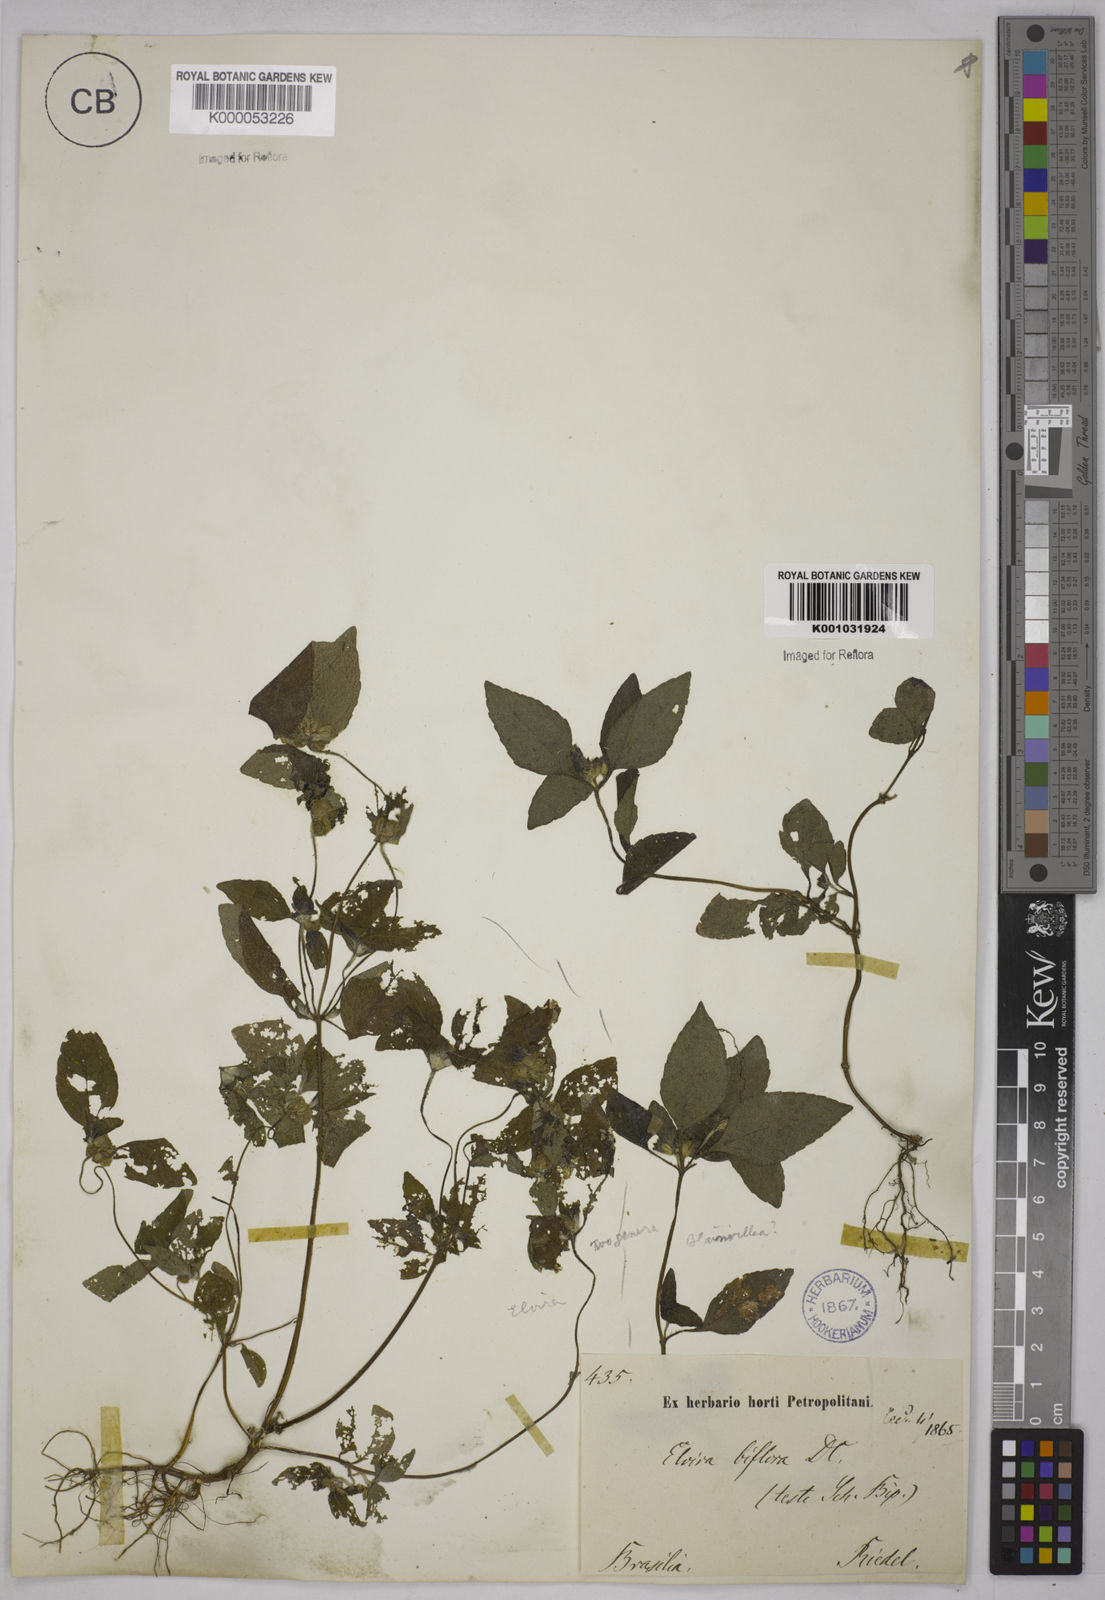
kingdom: Plantae
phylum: Tracheophyta
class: Magnoliopsida
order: Asterales
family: Asteraceae
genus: Delilia
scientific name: Delilia biflora
